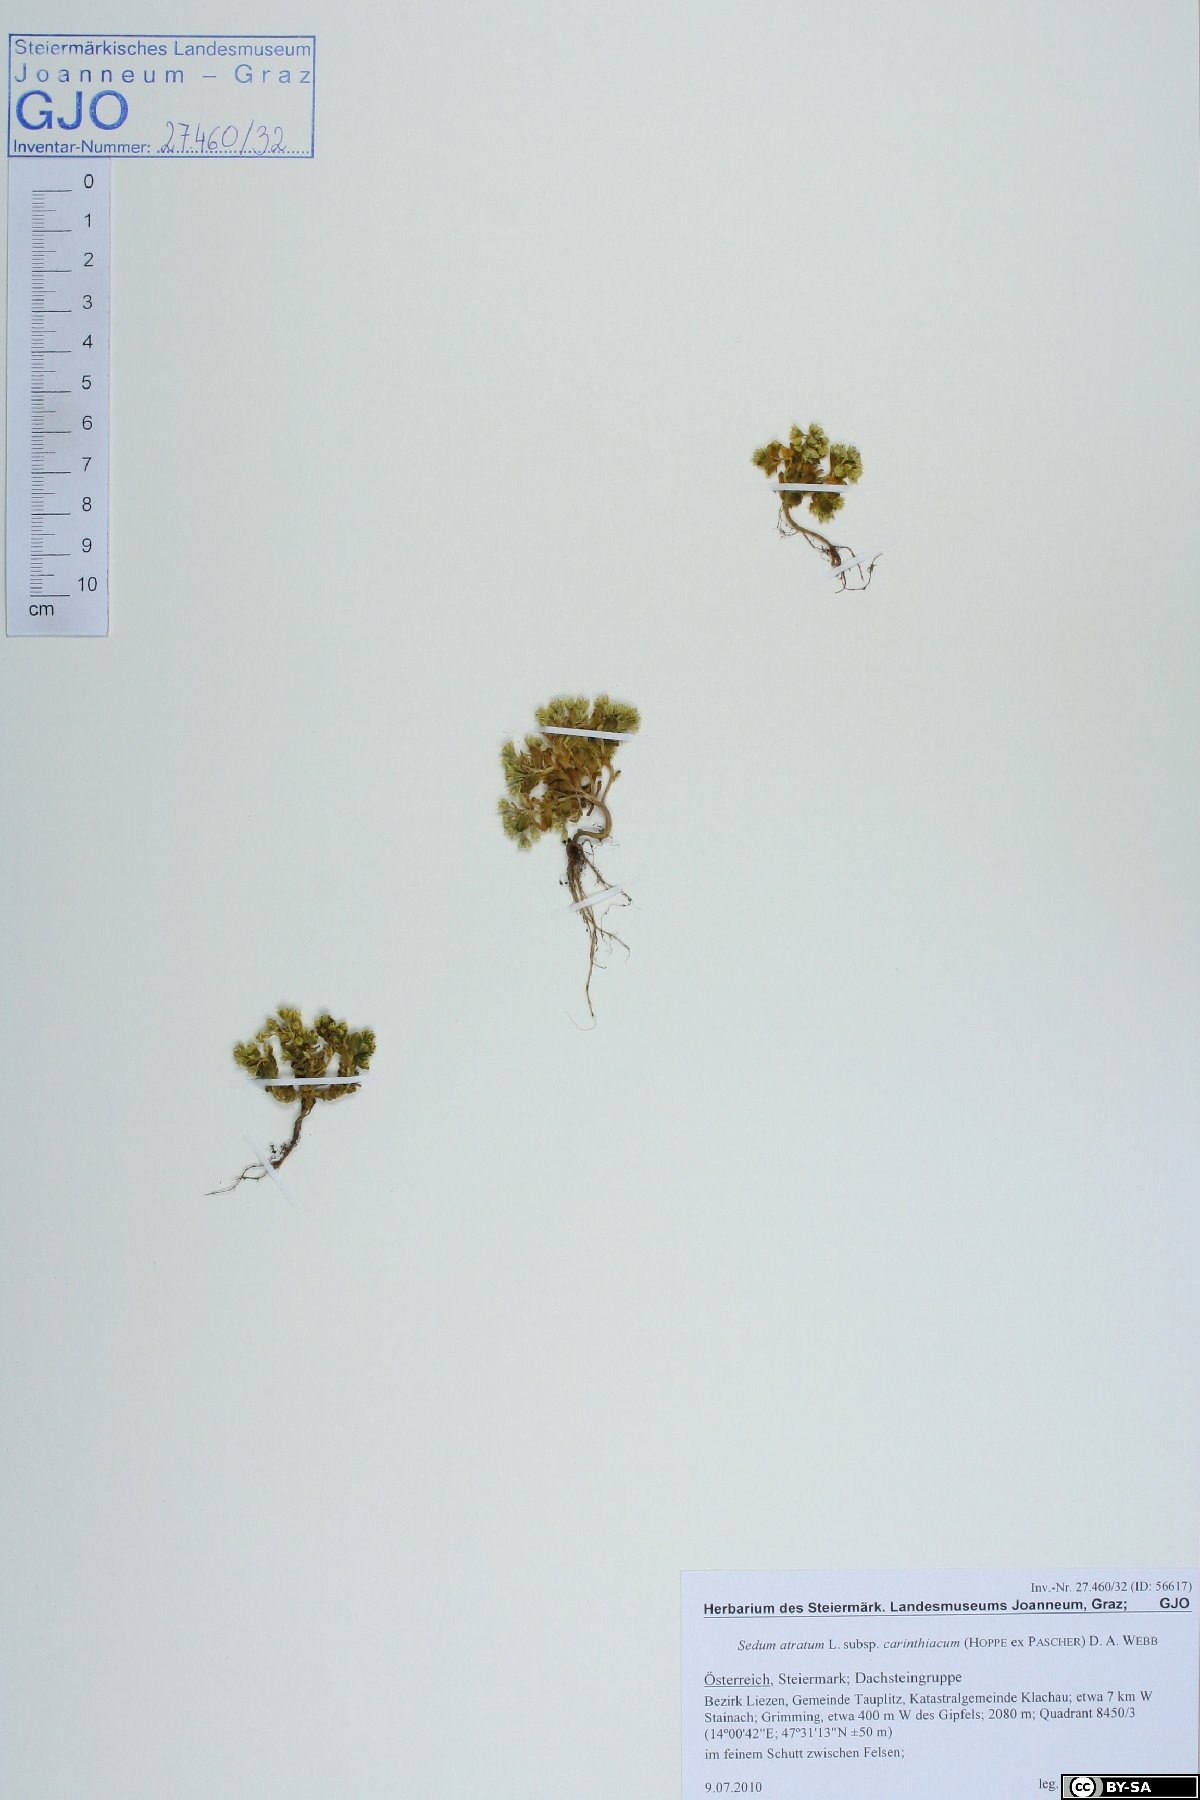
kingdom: Plantae
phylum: Tracheophyta
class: Magnoliopsida
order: Saxifragales
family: Crassulaceae
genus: Sedum
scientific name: Sedum atratum
